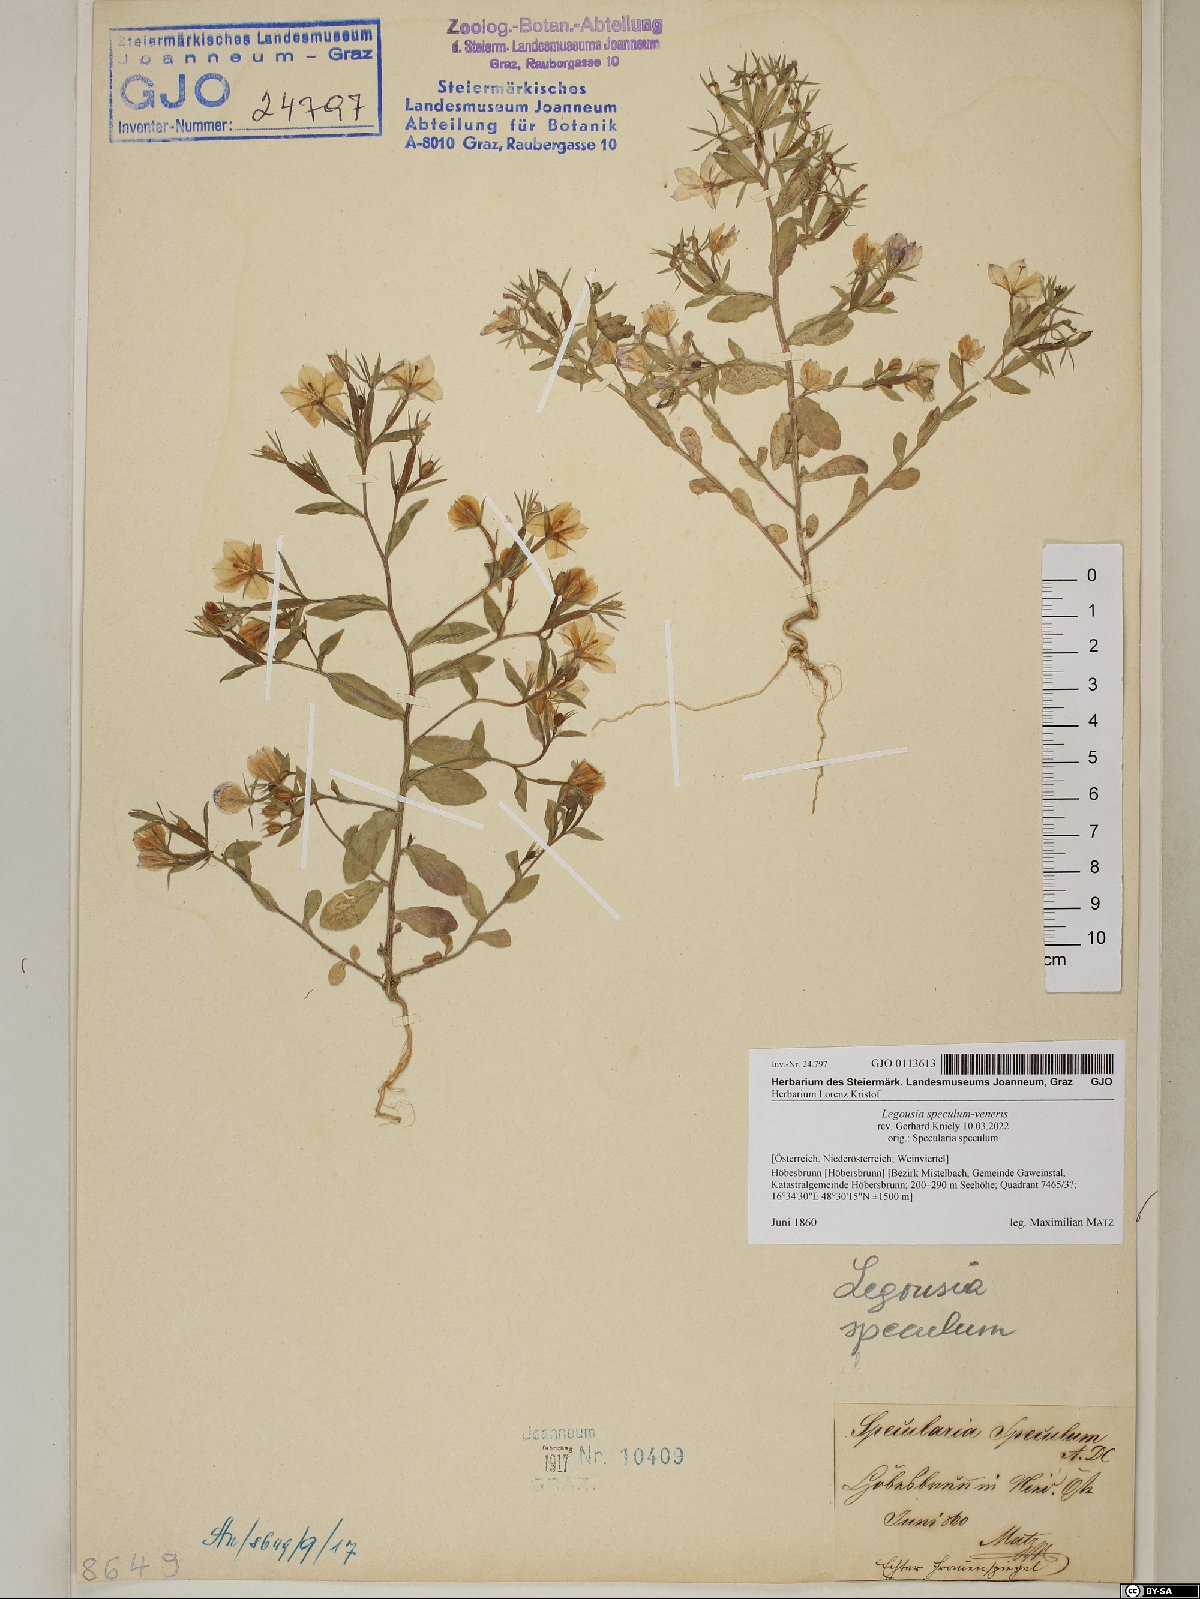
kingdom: Plantae
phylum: Tracheophyta
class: Magnoliopsida
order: Asterales
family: Campanulaceae
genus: Legousia
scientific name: Legousia speculum-veneris
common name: Large venus's-looking-glass
